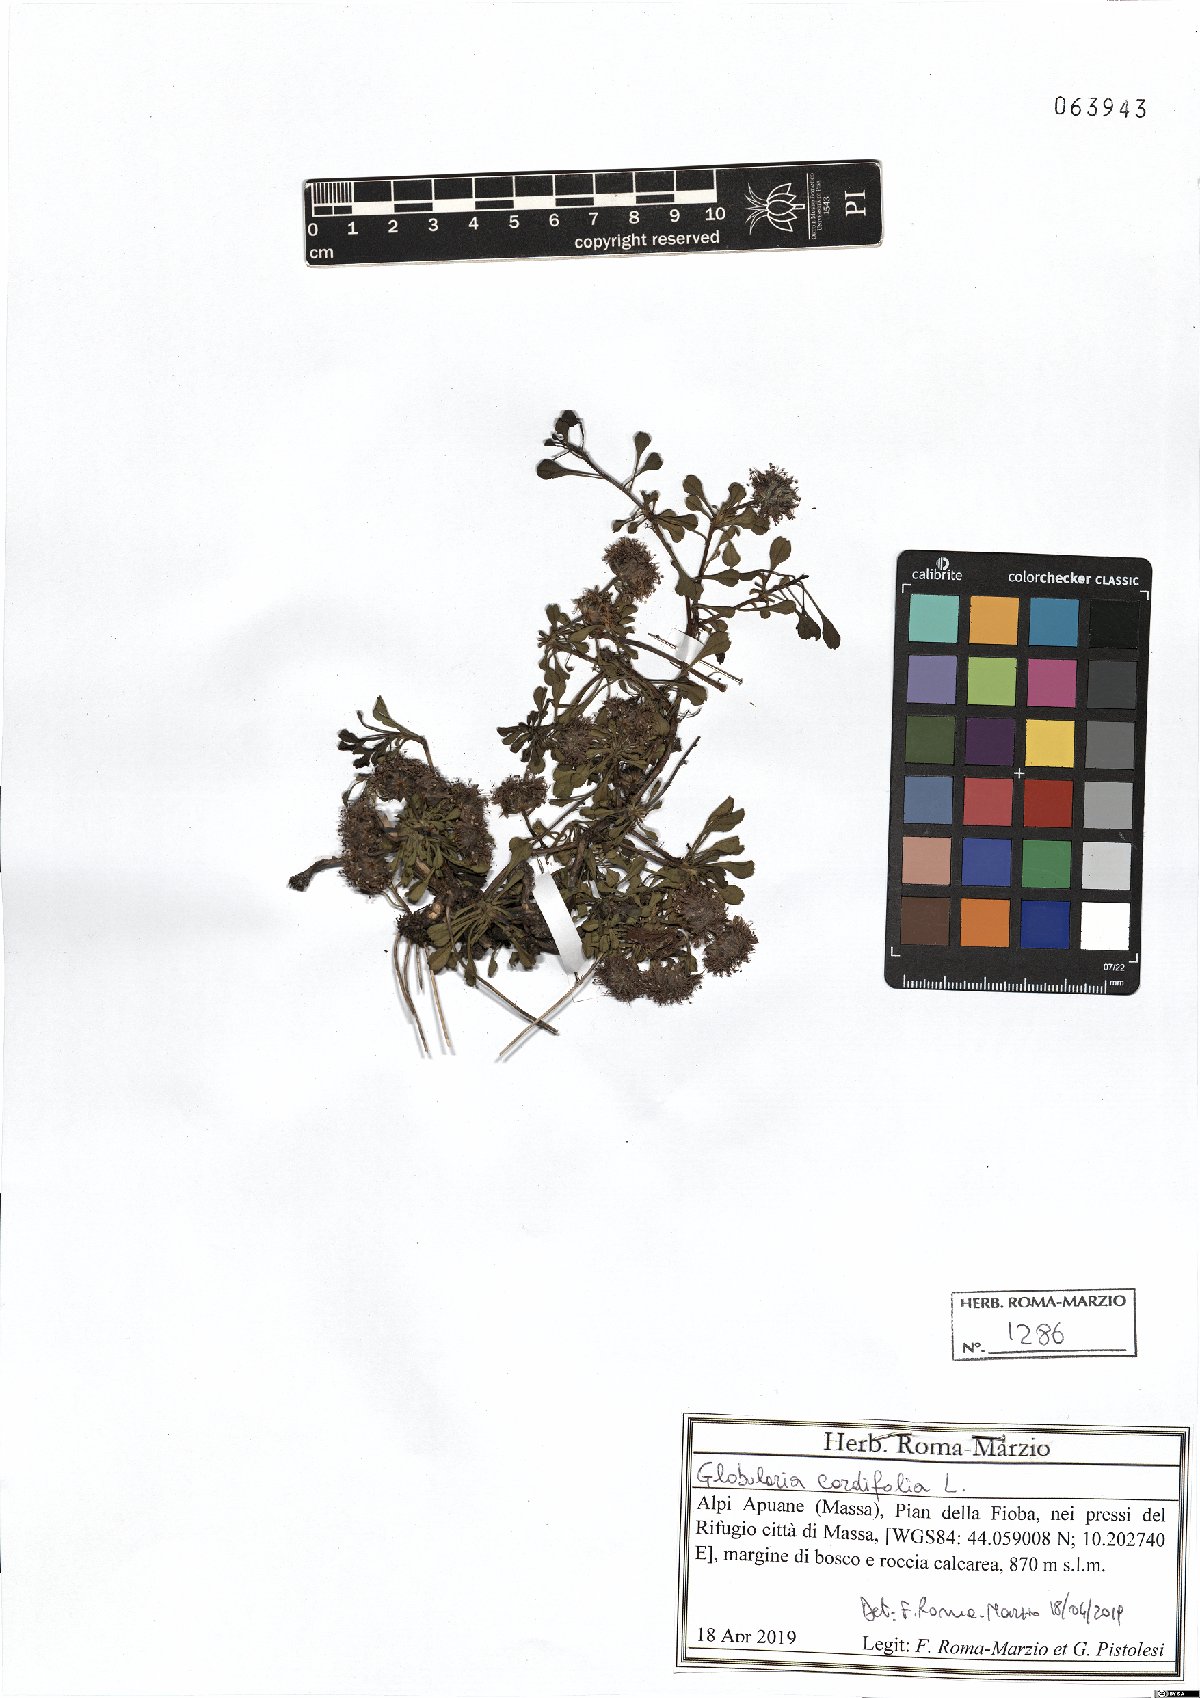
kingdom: Plantae
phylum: Tracheophyta
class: Magnoliopsida
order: Lamiales
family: Plantaginaceae
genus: Globularia
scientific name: Globularia cordifolia
